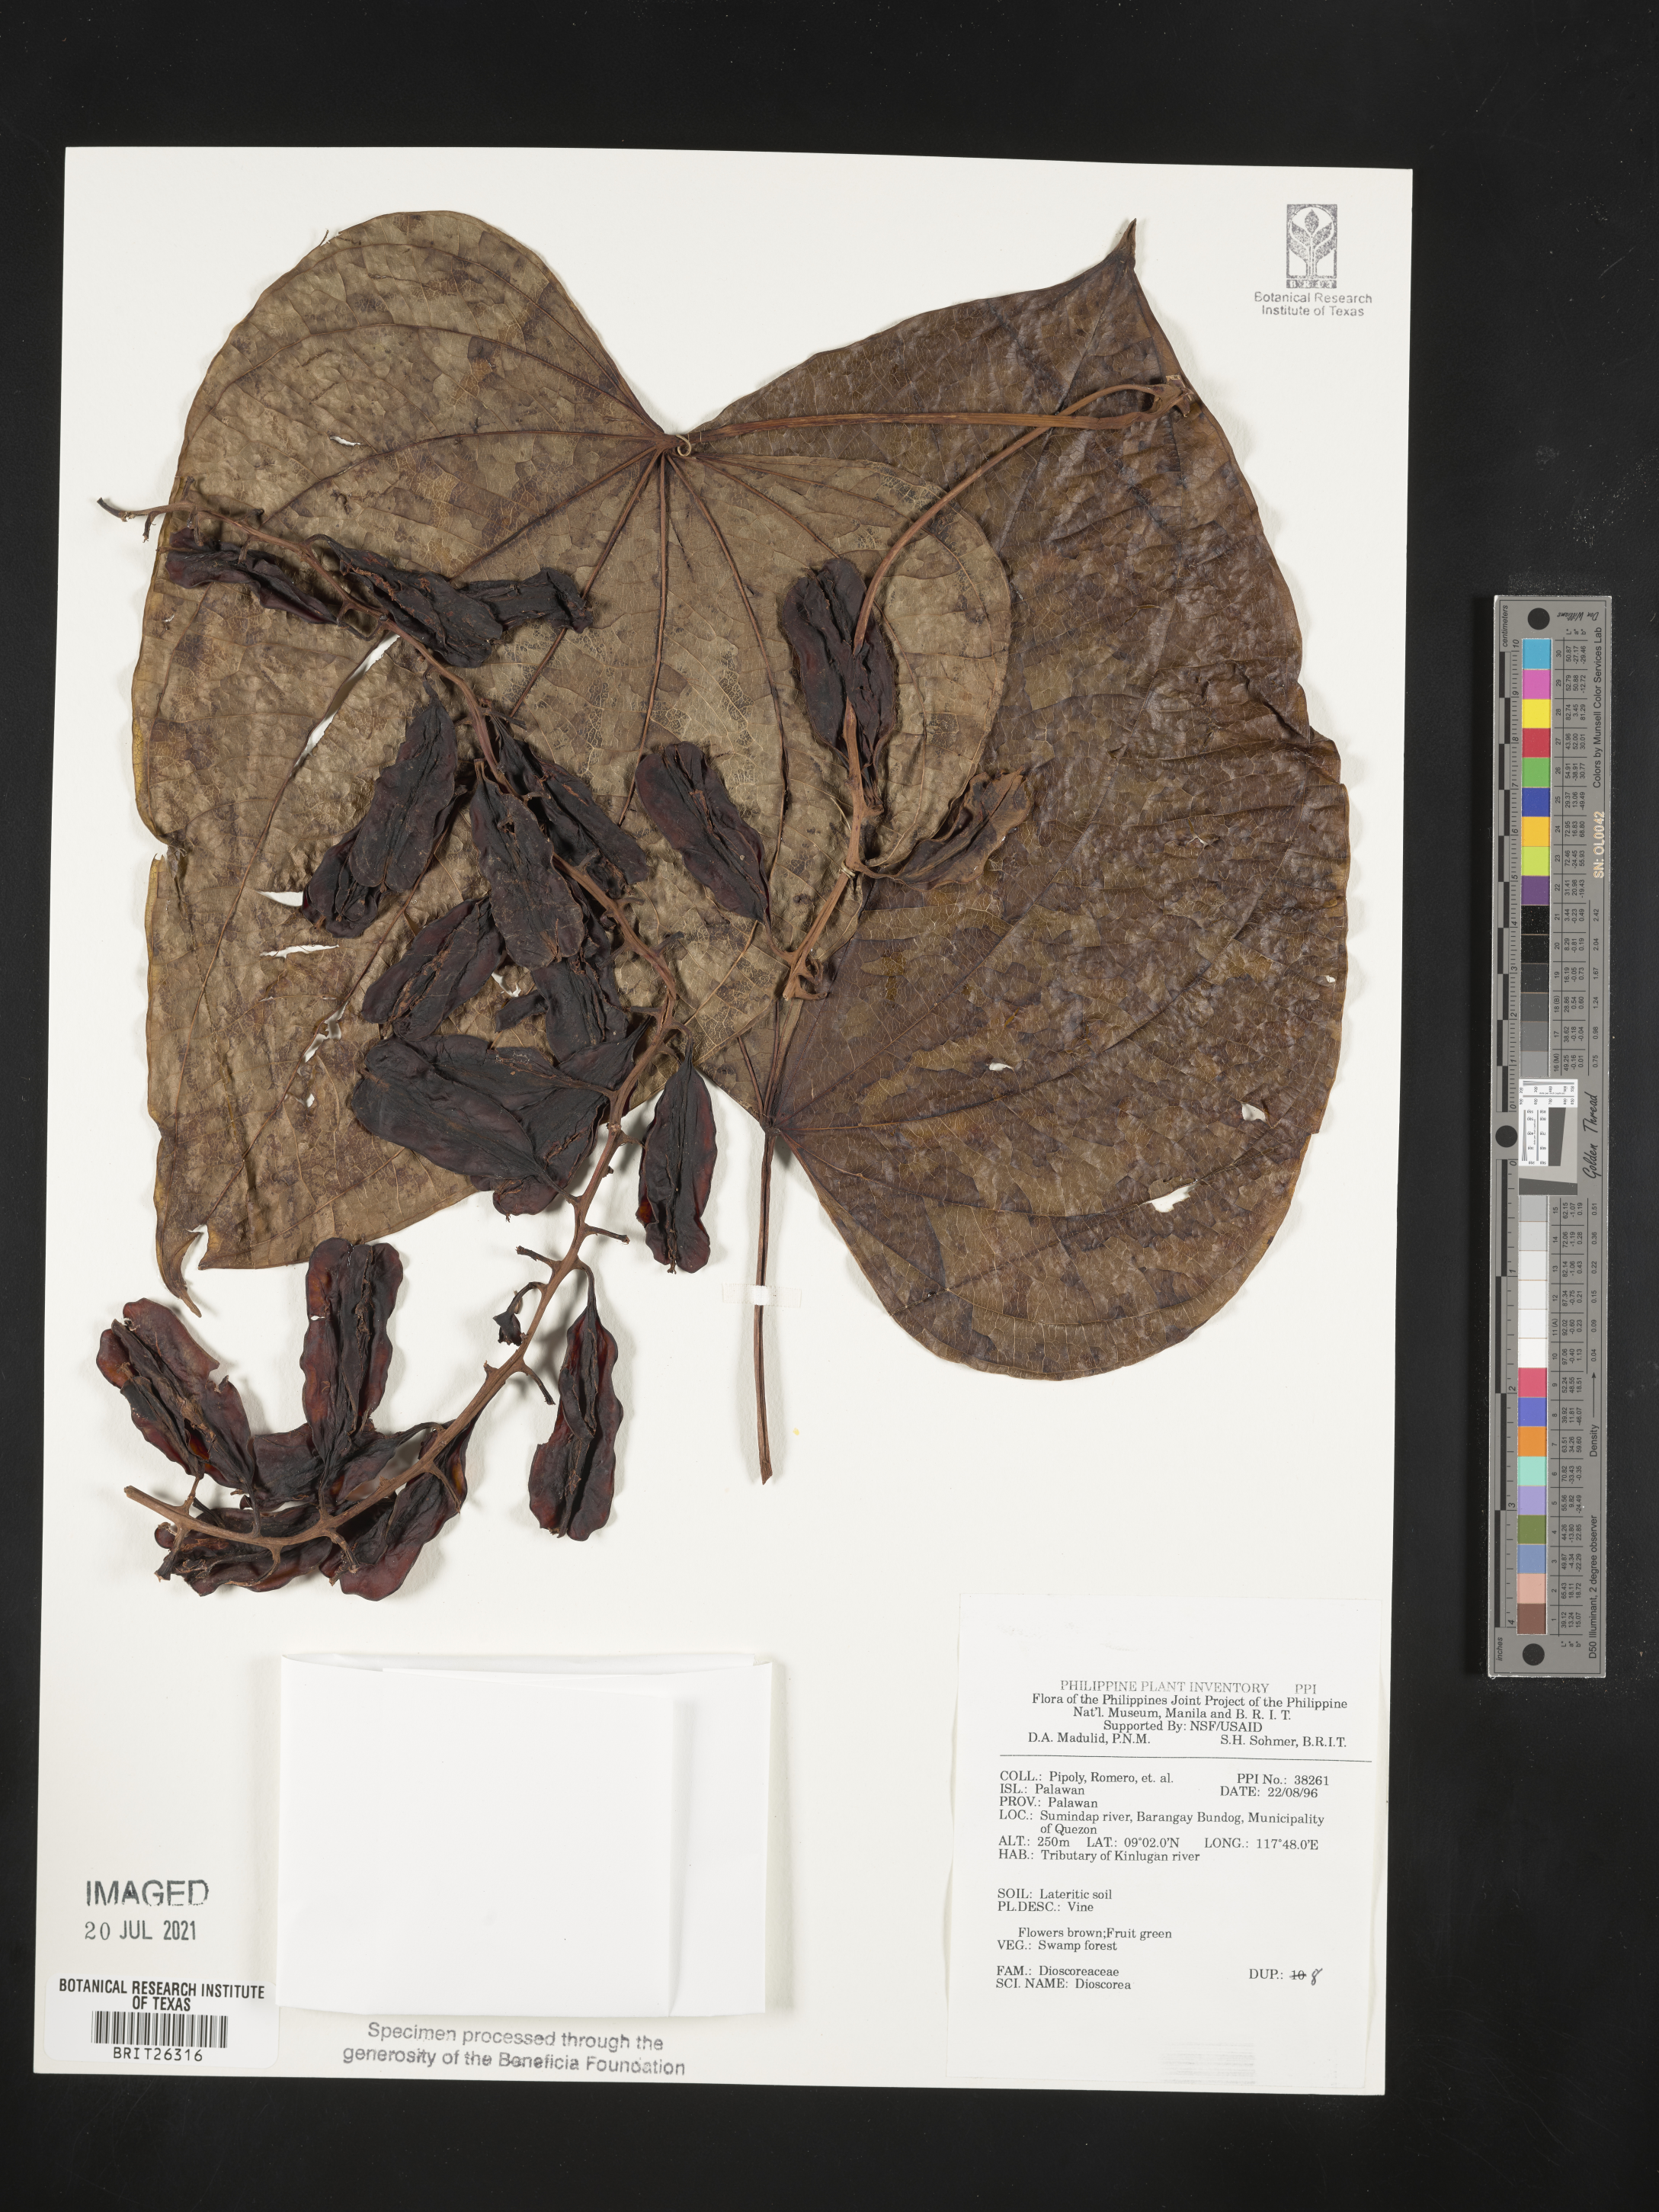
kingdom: Plantae
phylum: Tracheophyta
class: Liliopsida
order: Dioscoreales
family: Dioscoreaceae
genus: Dioscorea
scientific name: Dioscorea
